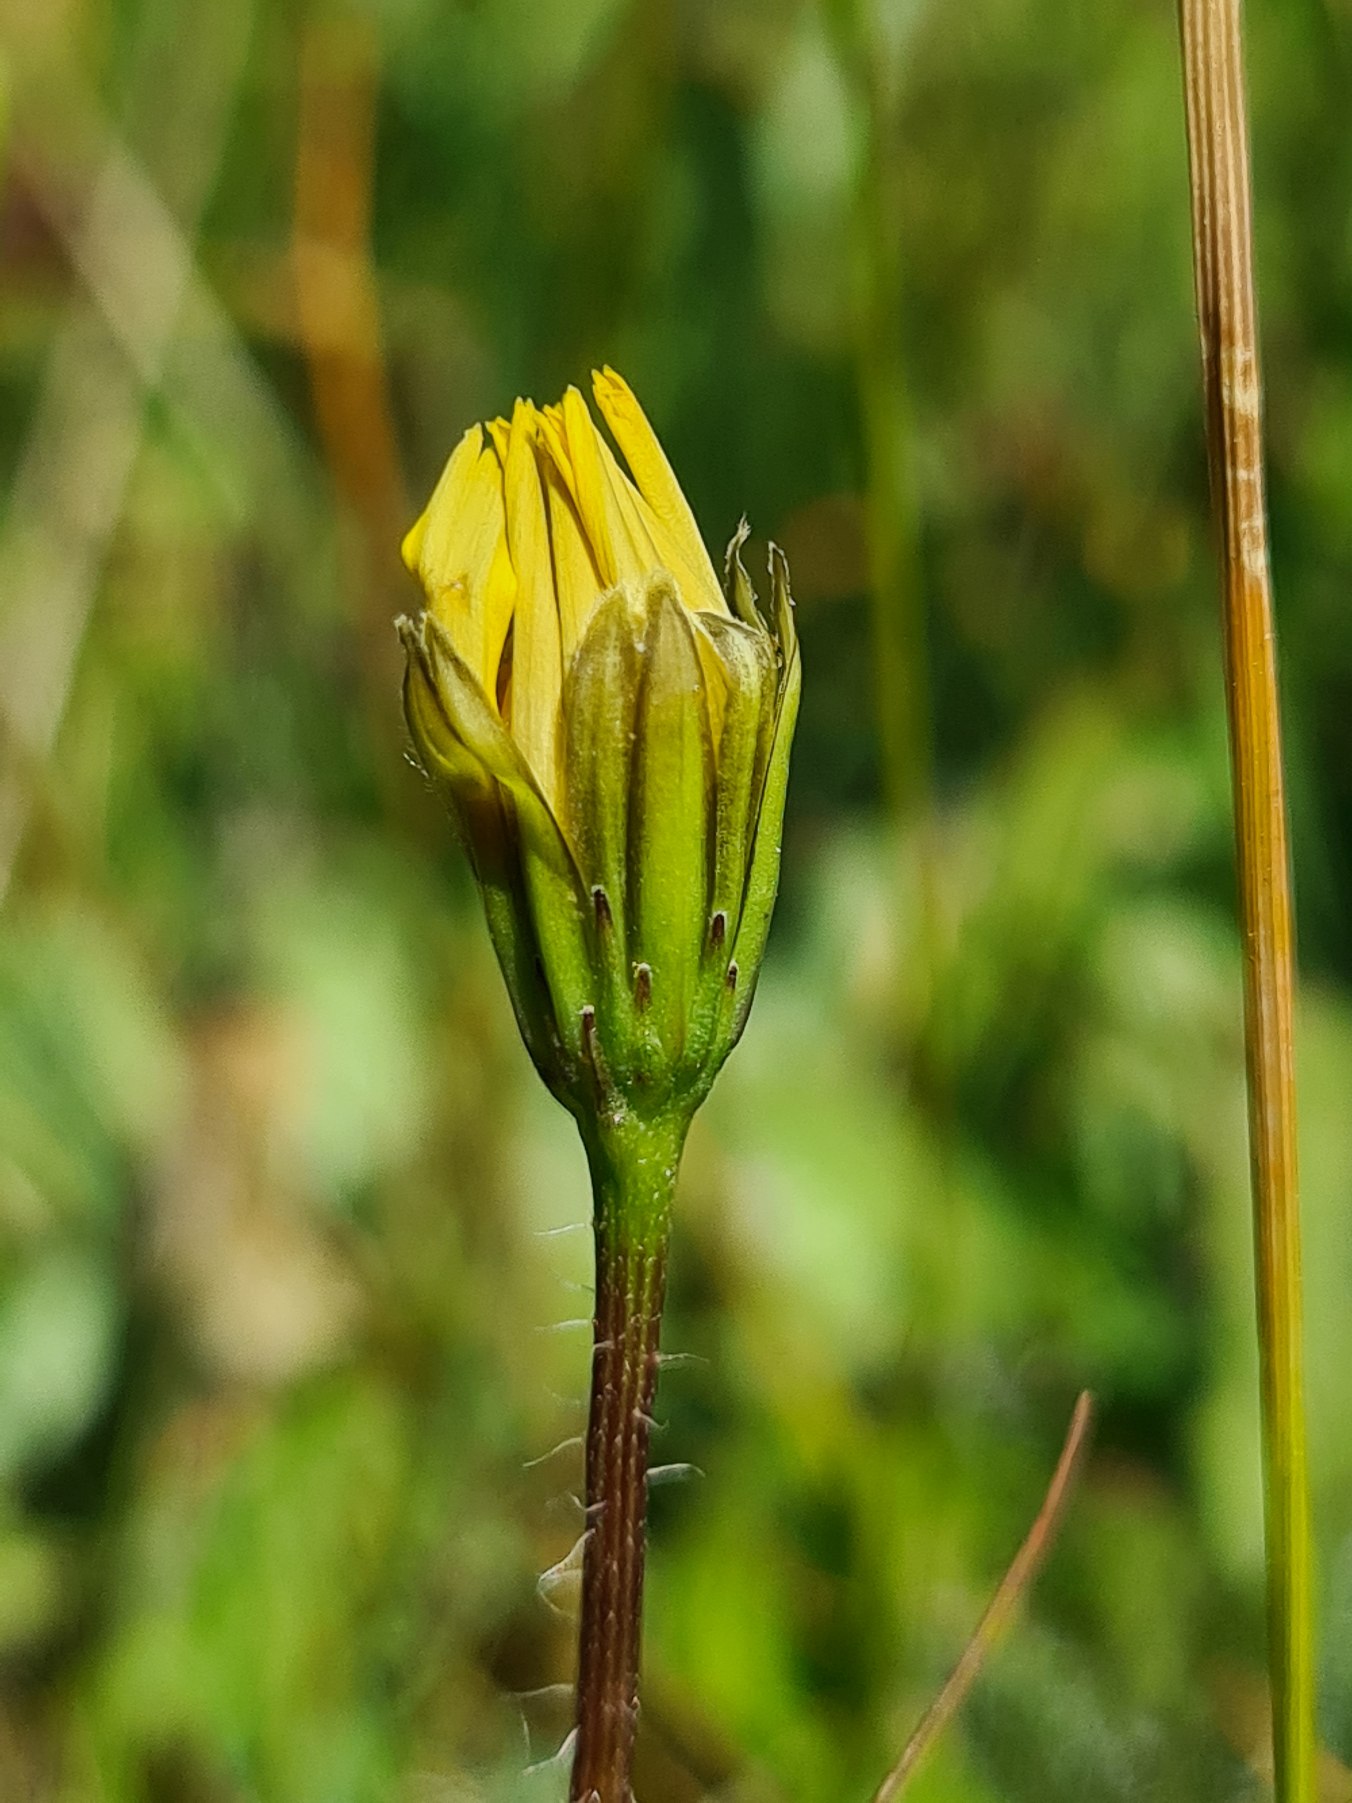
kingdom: Plantae
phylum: Tracheophyta
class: Magnoliopsida
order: Asterales
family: Asteraceae
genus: Thrincia
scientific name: Thrincia saxatilis
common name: Hundesalat
